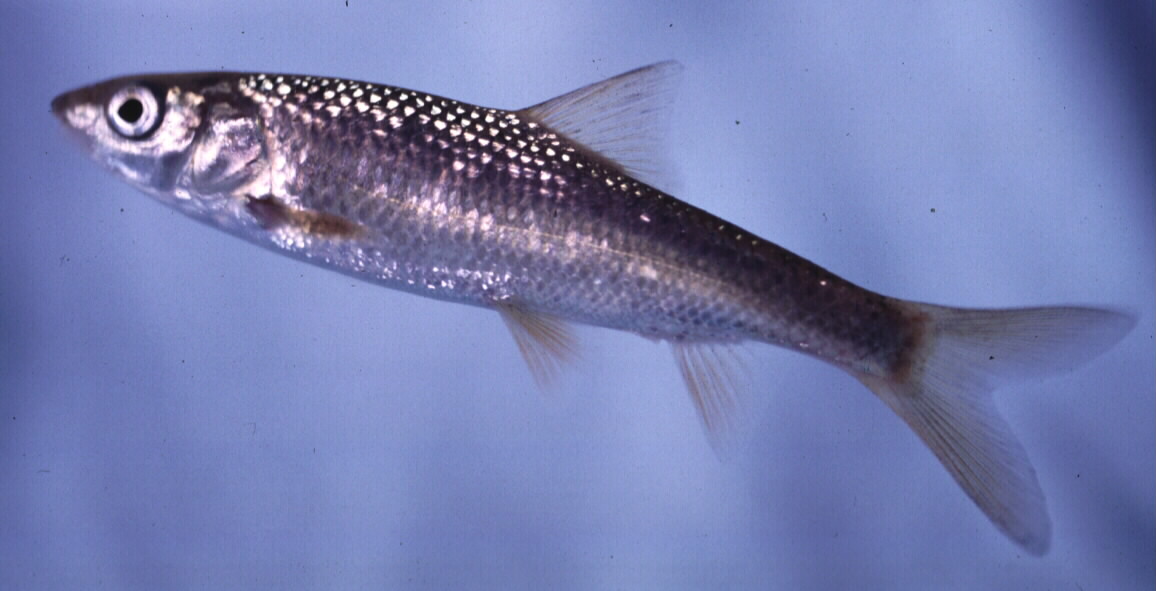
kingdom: Animalia
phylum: Chordata
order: Cypriniformes
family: Cyprinidae
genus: Cheilobarbus
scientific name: Cheilobarbus capensis
